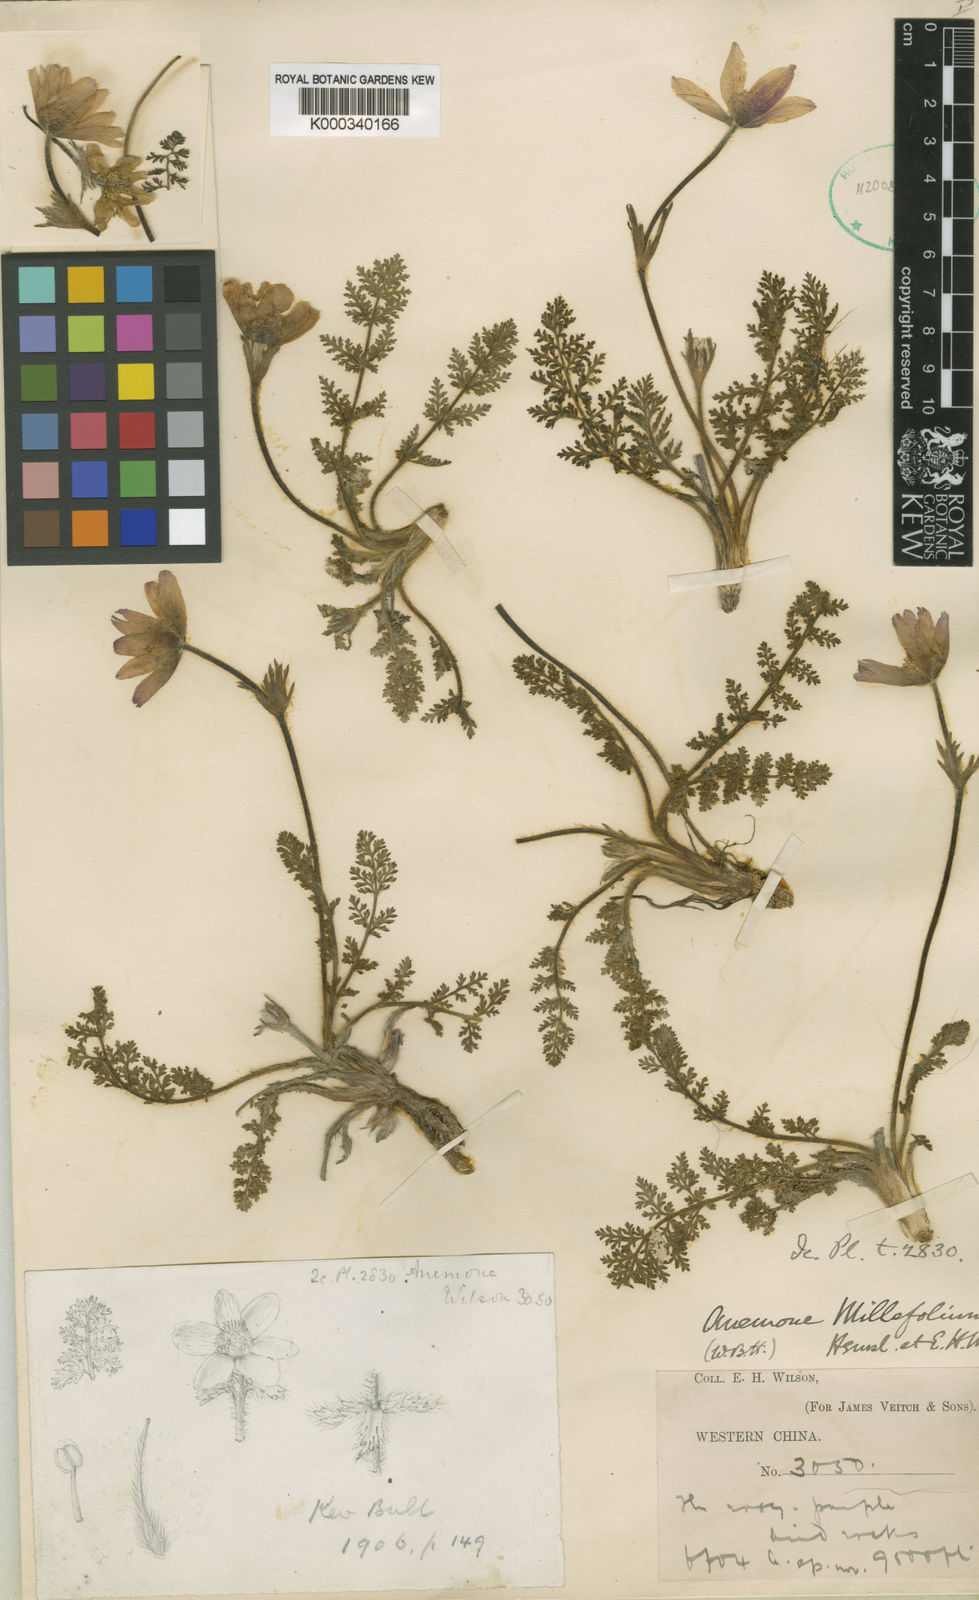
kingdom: Plantae
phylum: Tracheophyta
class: Magnoliopsida
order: Ranunculales
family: Ranunculaceae
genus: Pulsatilla
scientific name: Pulsatilla millefolium
